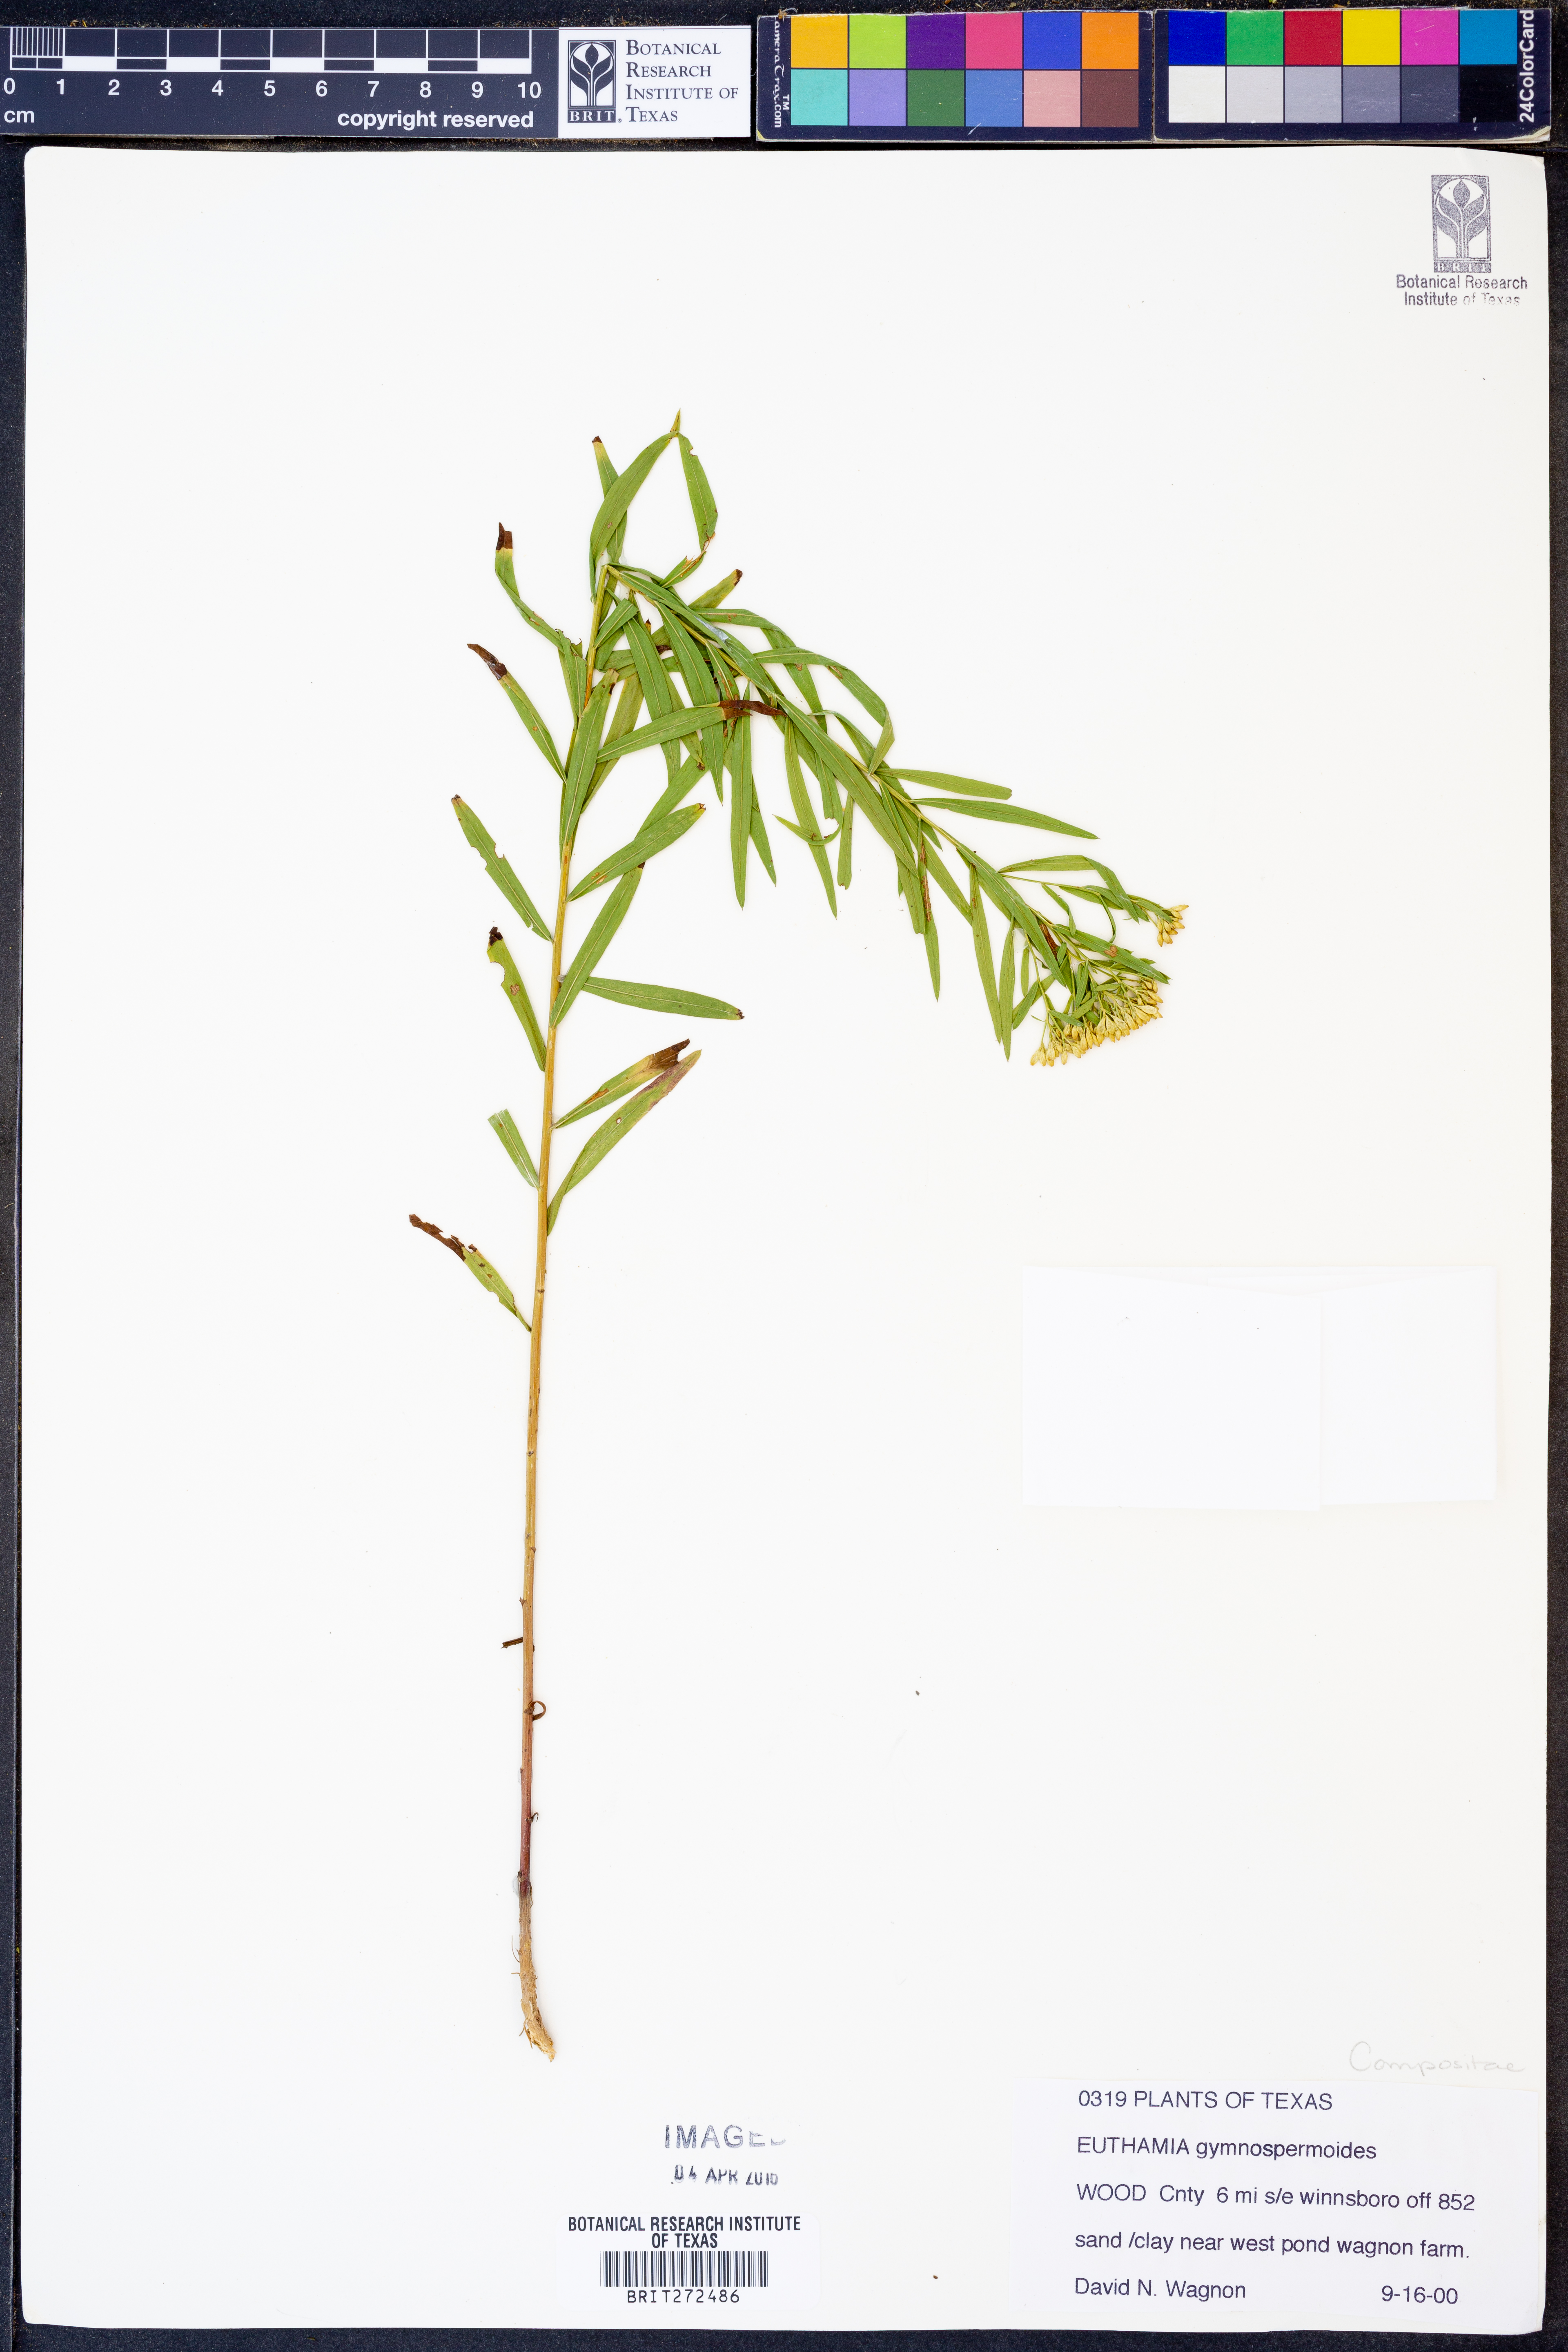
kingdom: Plantae
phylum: Tracheophyta
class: Magnoliopsida
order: Asterales
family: Asteraceae
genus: Euthamia
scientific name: Euthamia gymnospermoides
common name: Great plains goldentop
